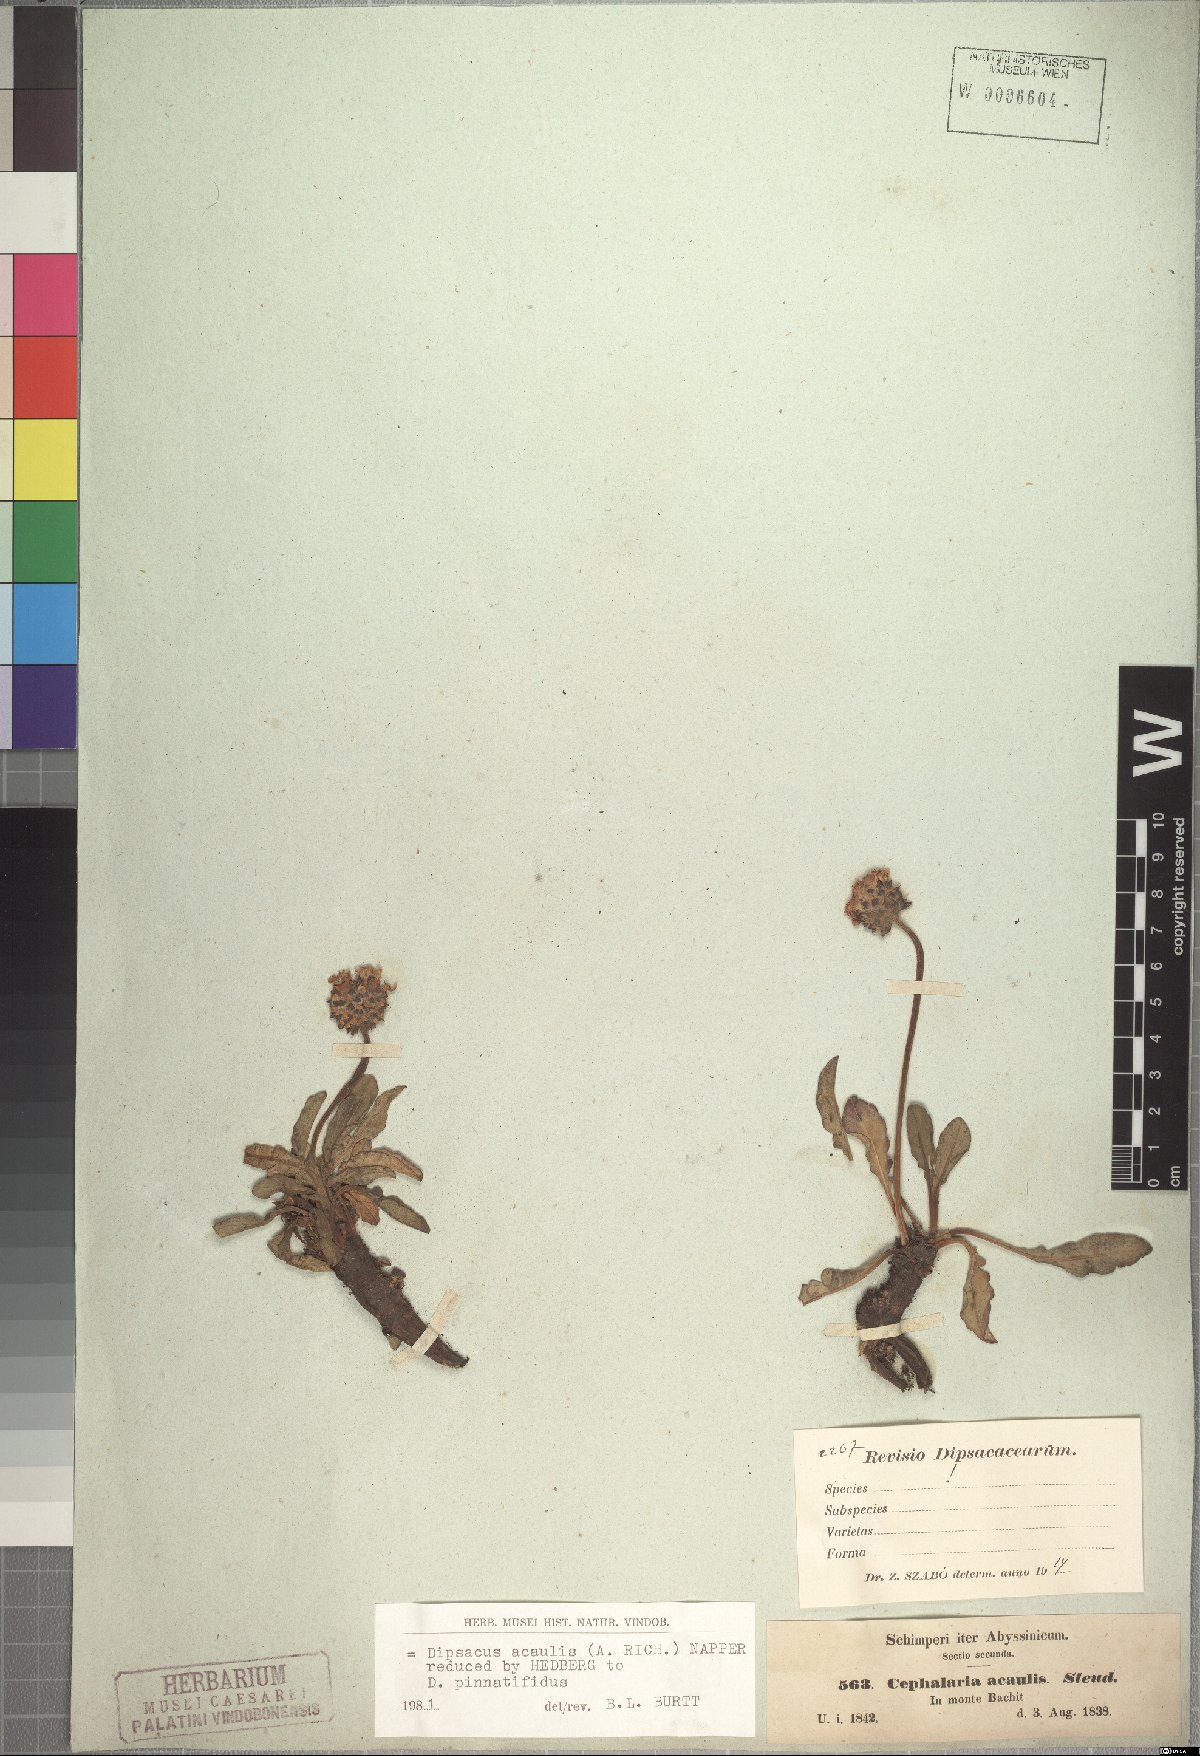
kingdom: Plantae
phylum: Tracheophyta
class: Magnoliopsida
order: Dipsacales
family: Caprifoliaceae
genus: Dipsacus
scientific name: Dipsacus pinnatifidus
